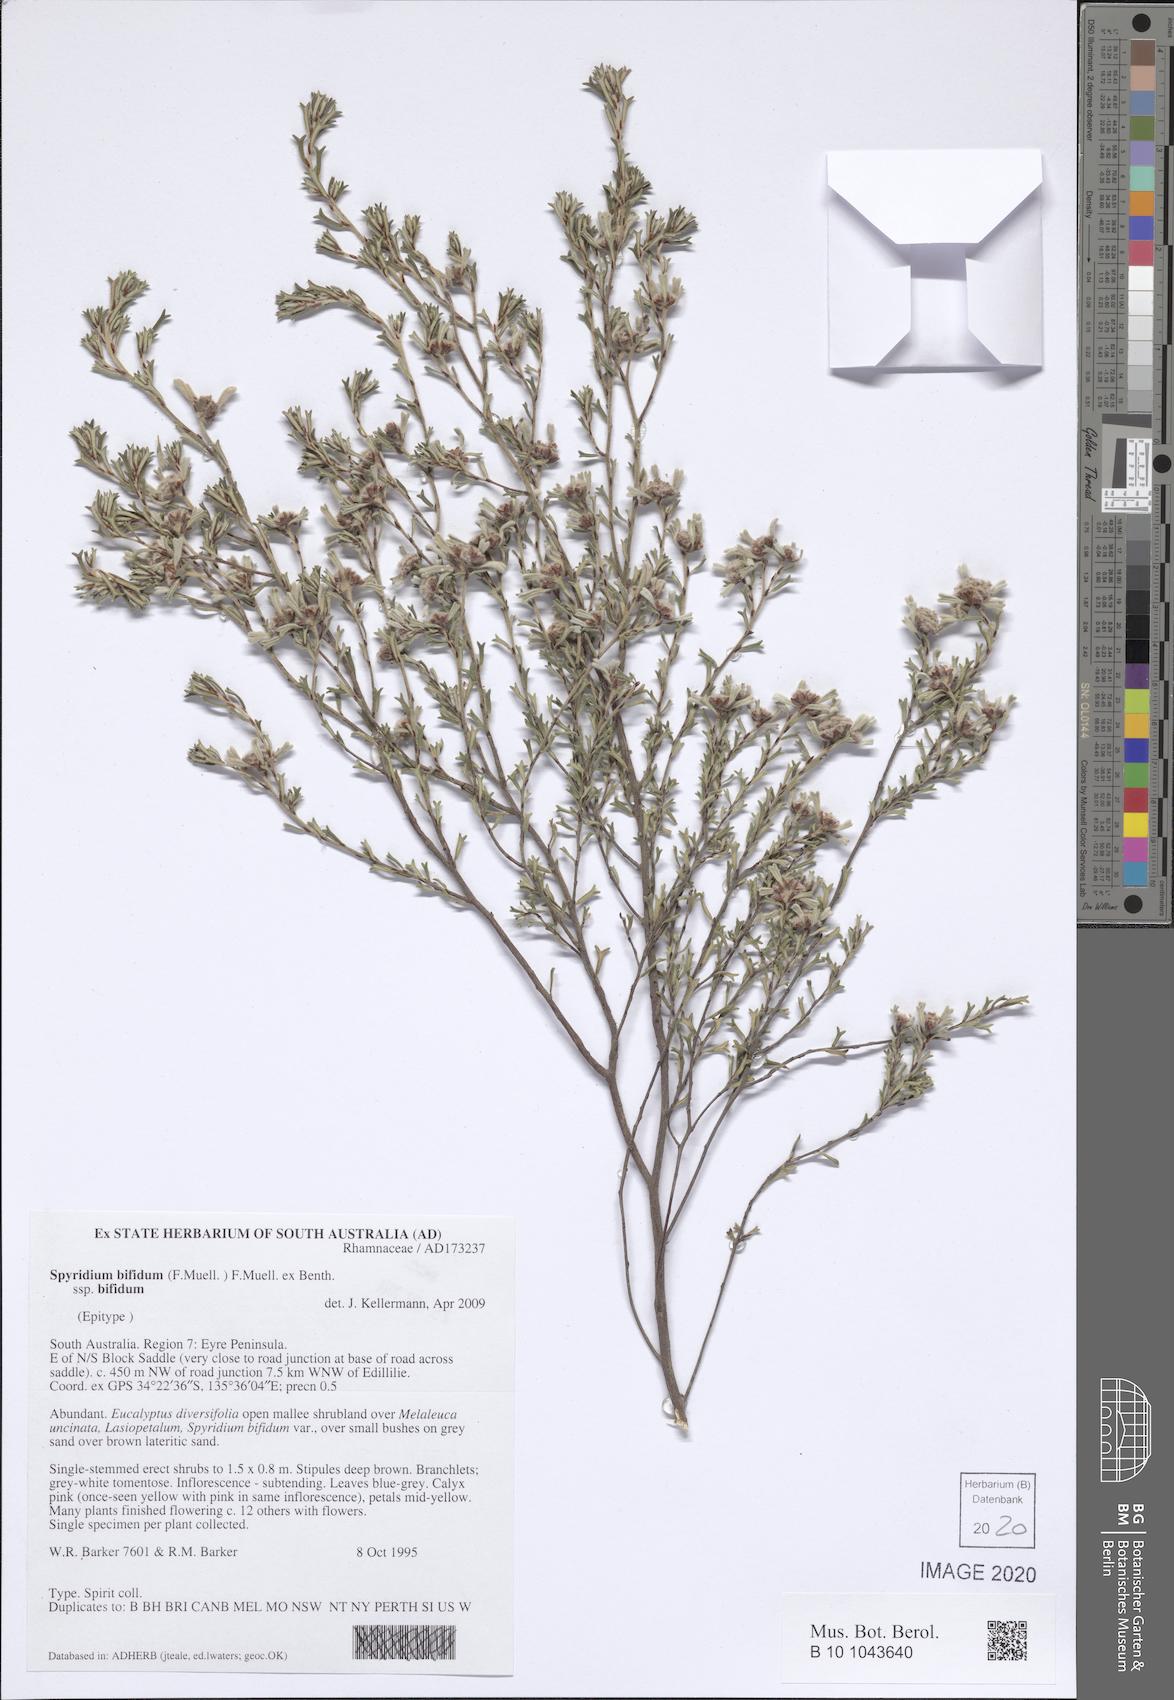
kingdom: Plantae
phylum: Tracheophyta
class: Magnoliopsida
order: Rosales
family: Rhamnaceae
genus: Spyridium
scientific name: Spyridium bifidum
